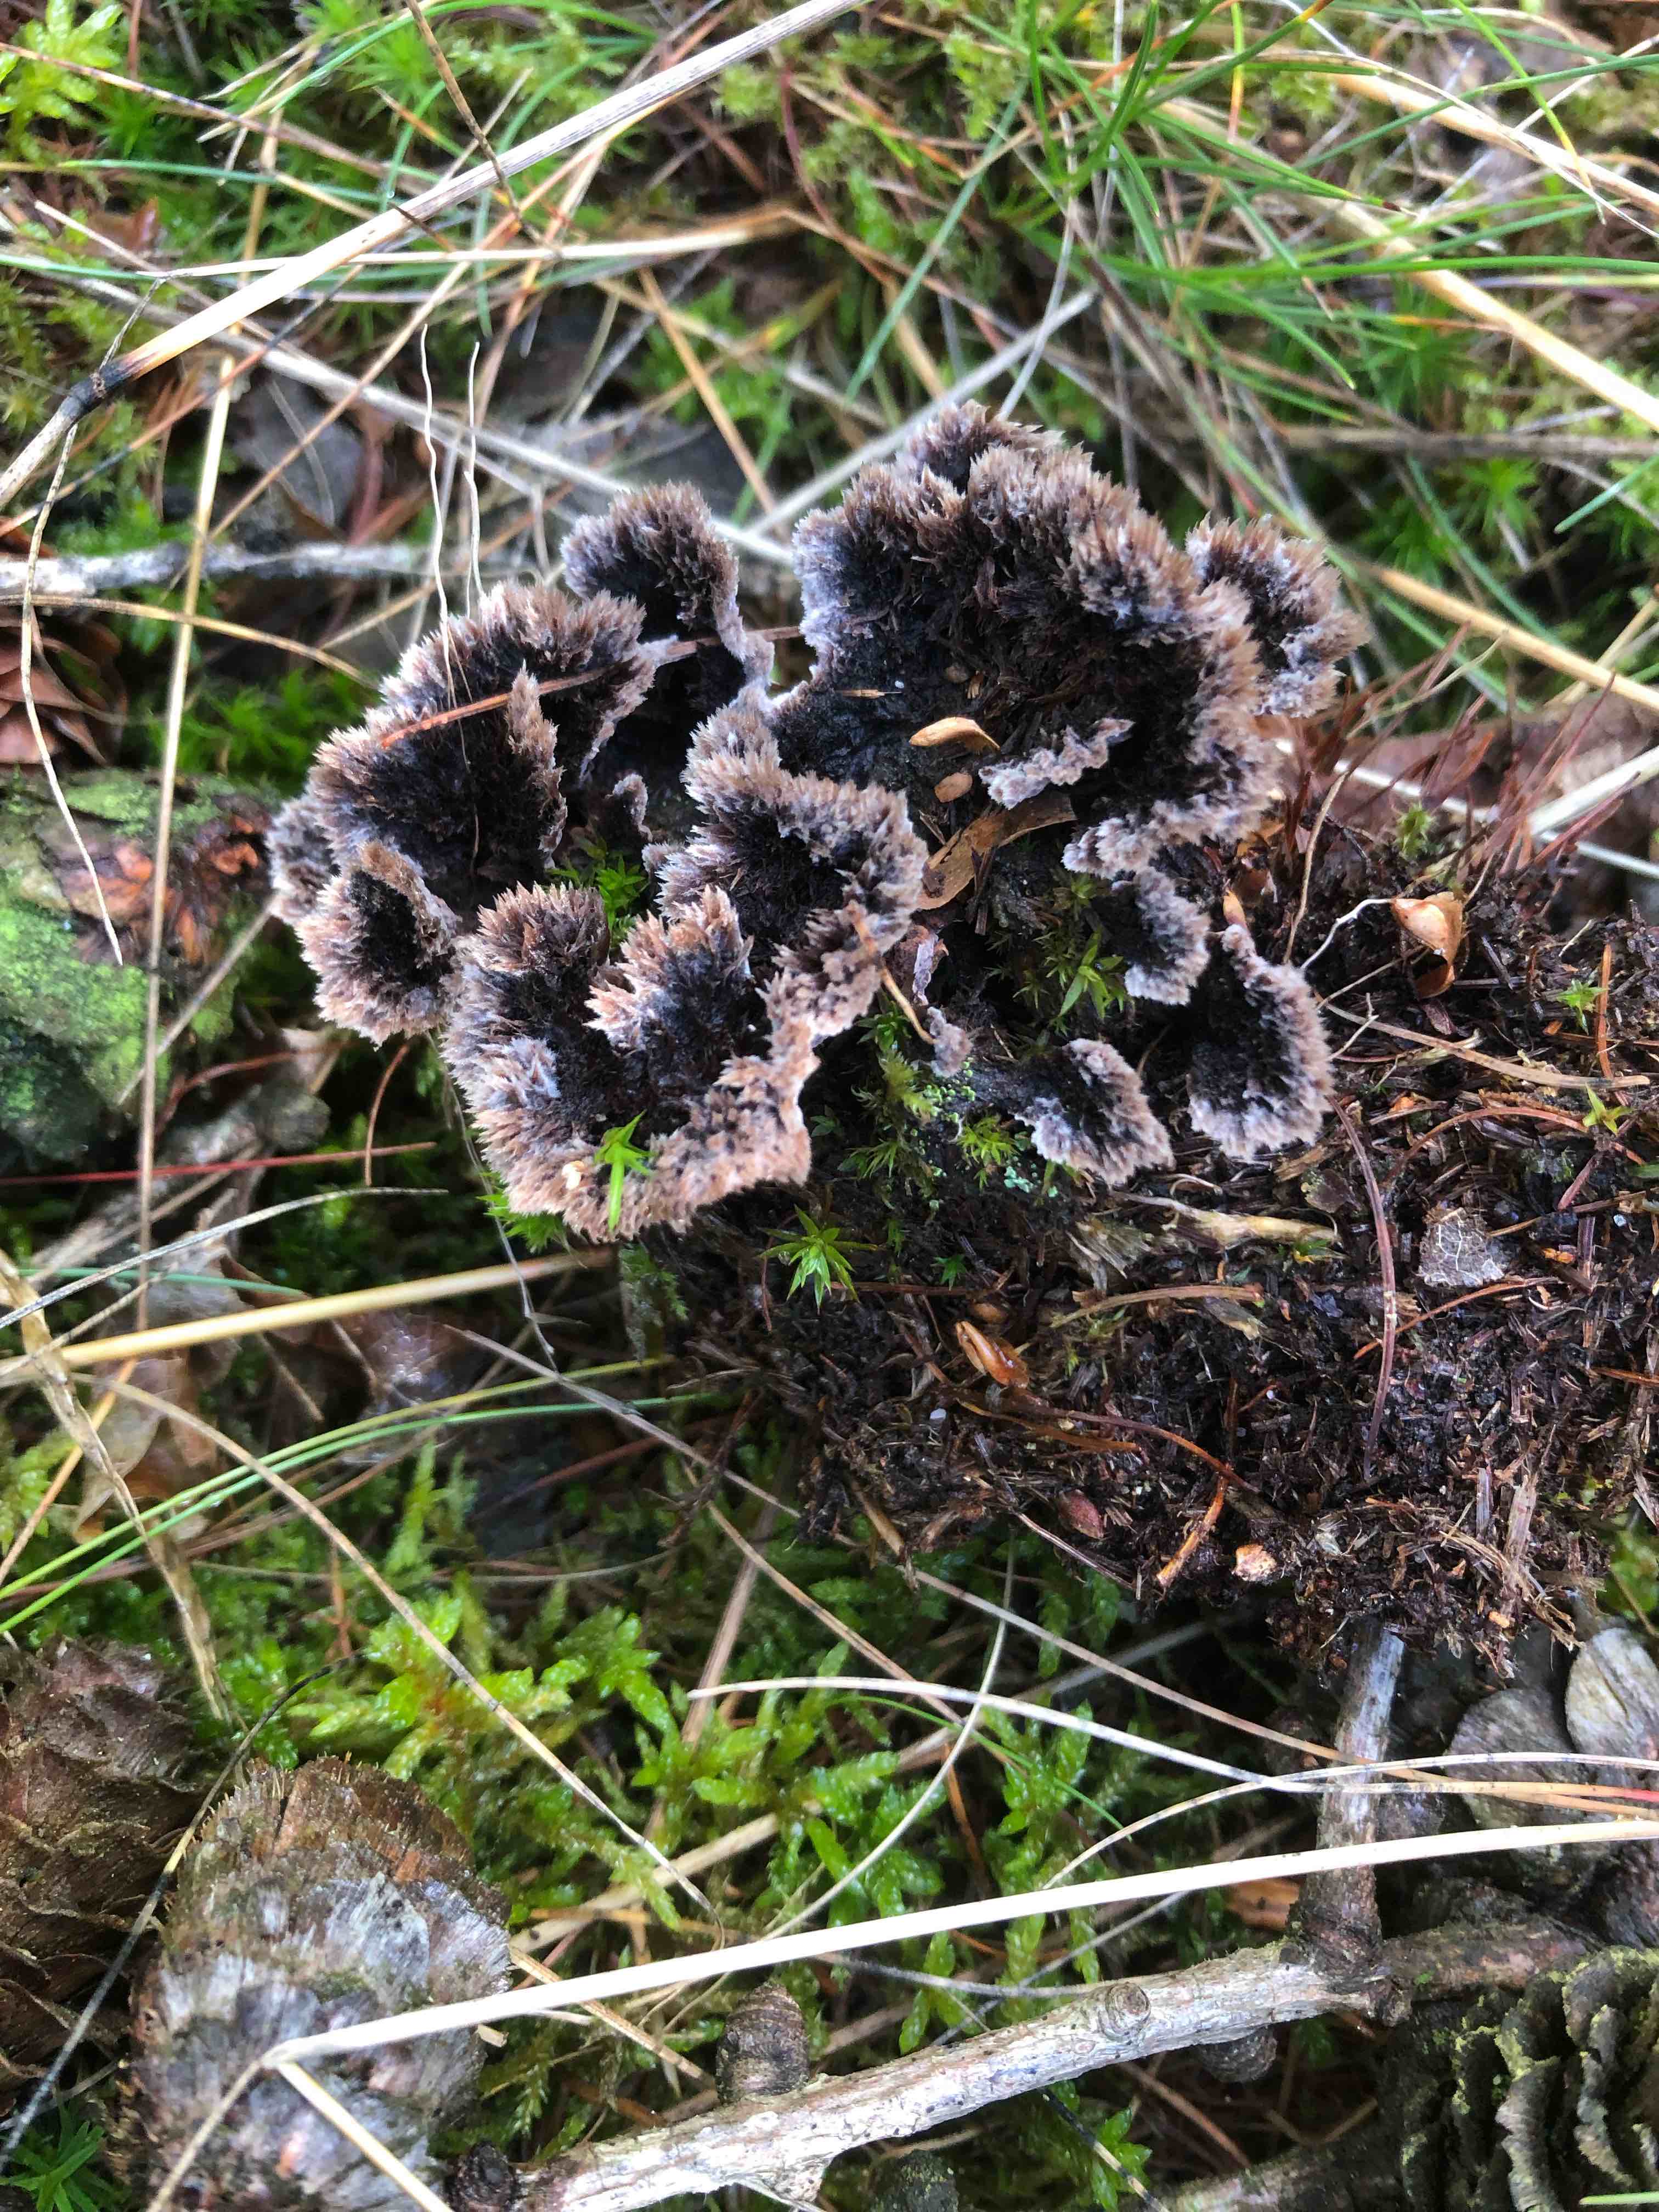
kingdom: Fungi
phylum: Basidiomycota
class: Agaricomycetes
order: Thelephorales
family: Thelephoraceae
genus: Thelephora
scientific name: Thelephora terrestris
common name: fliget frynsesvamp
